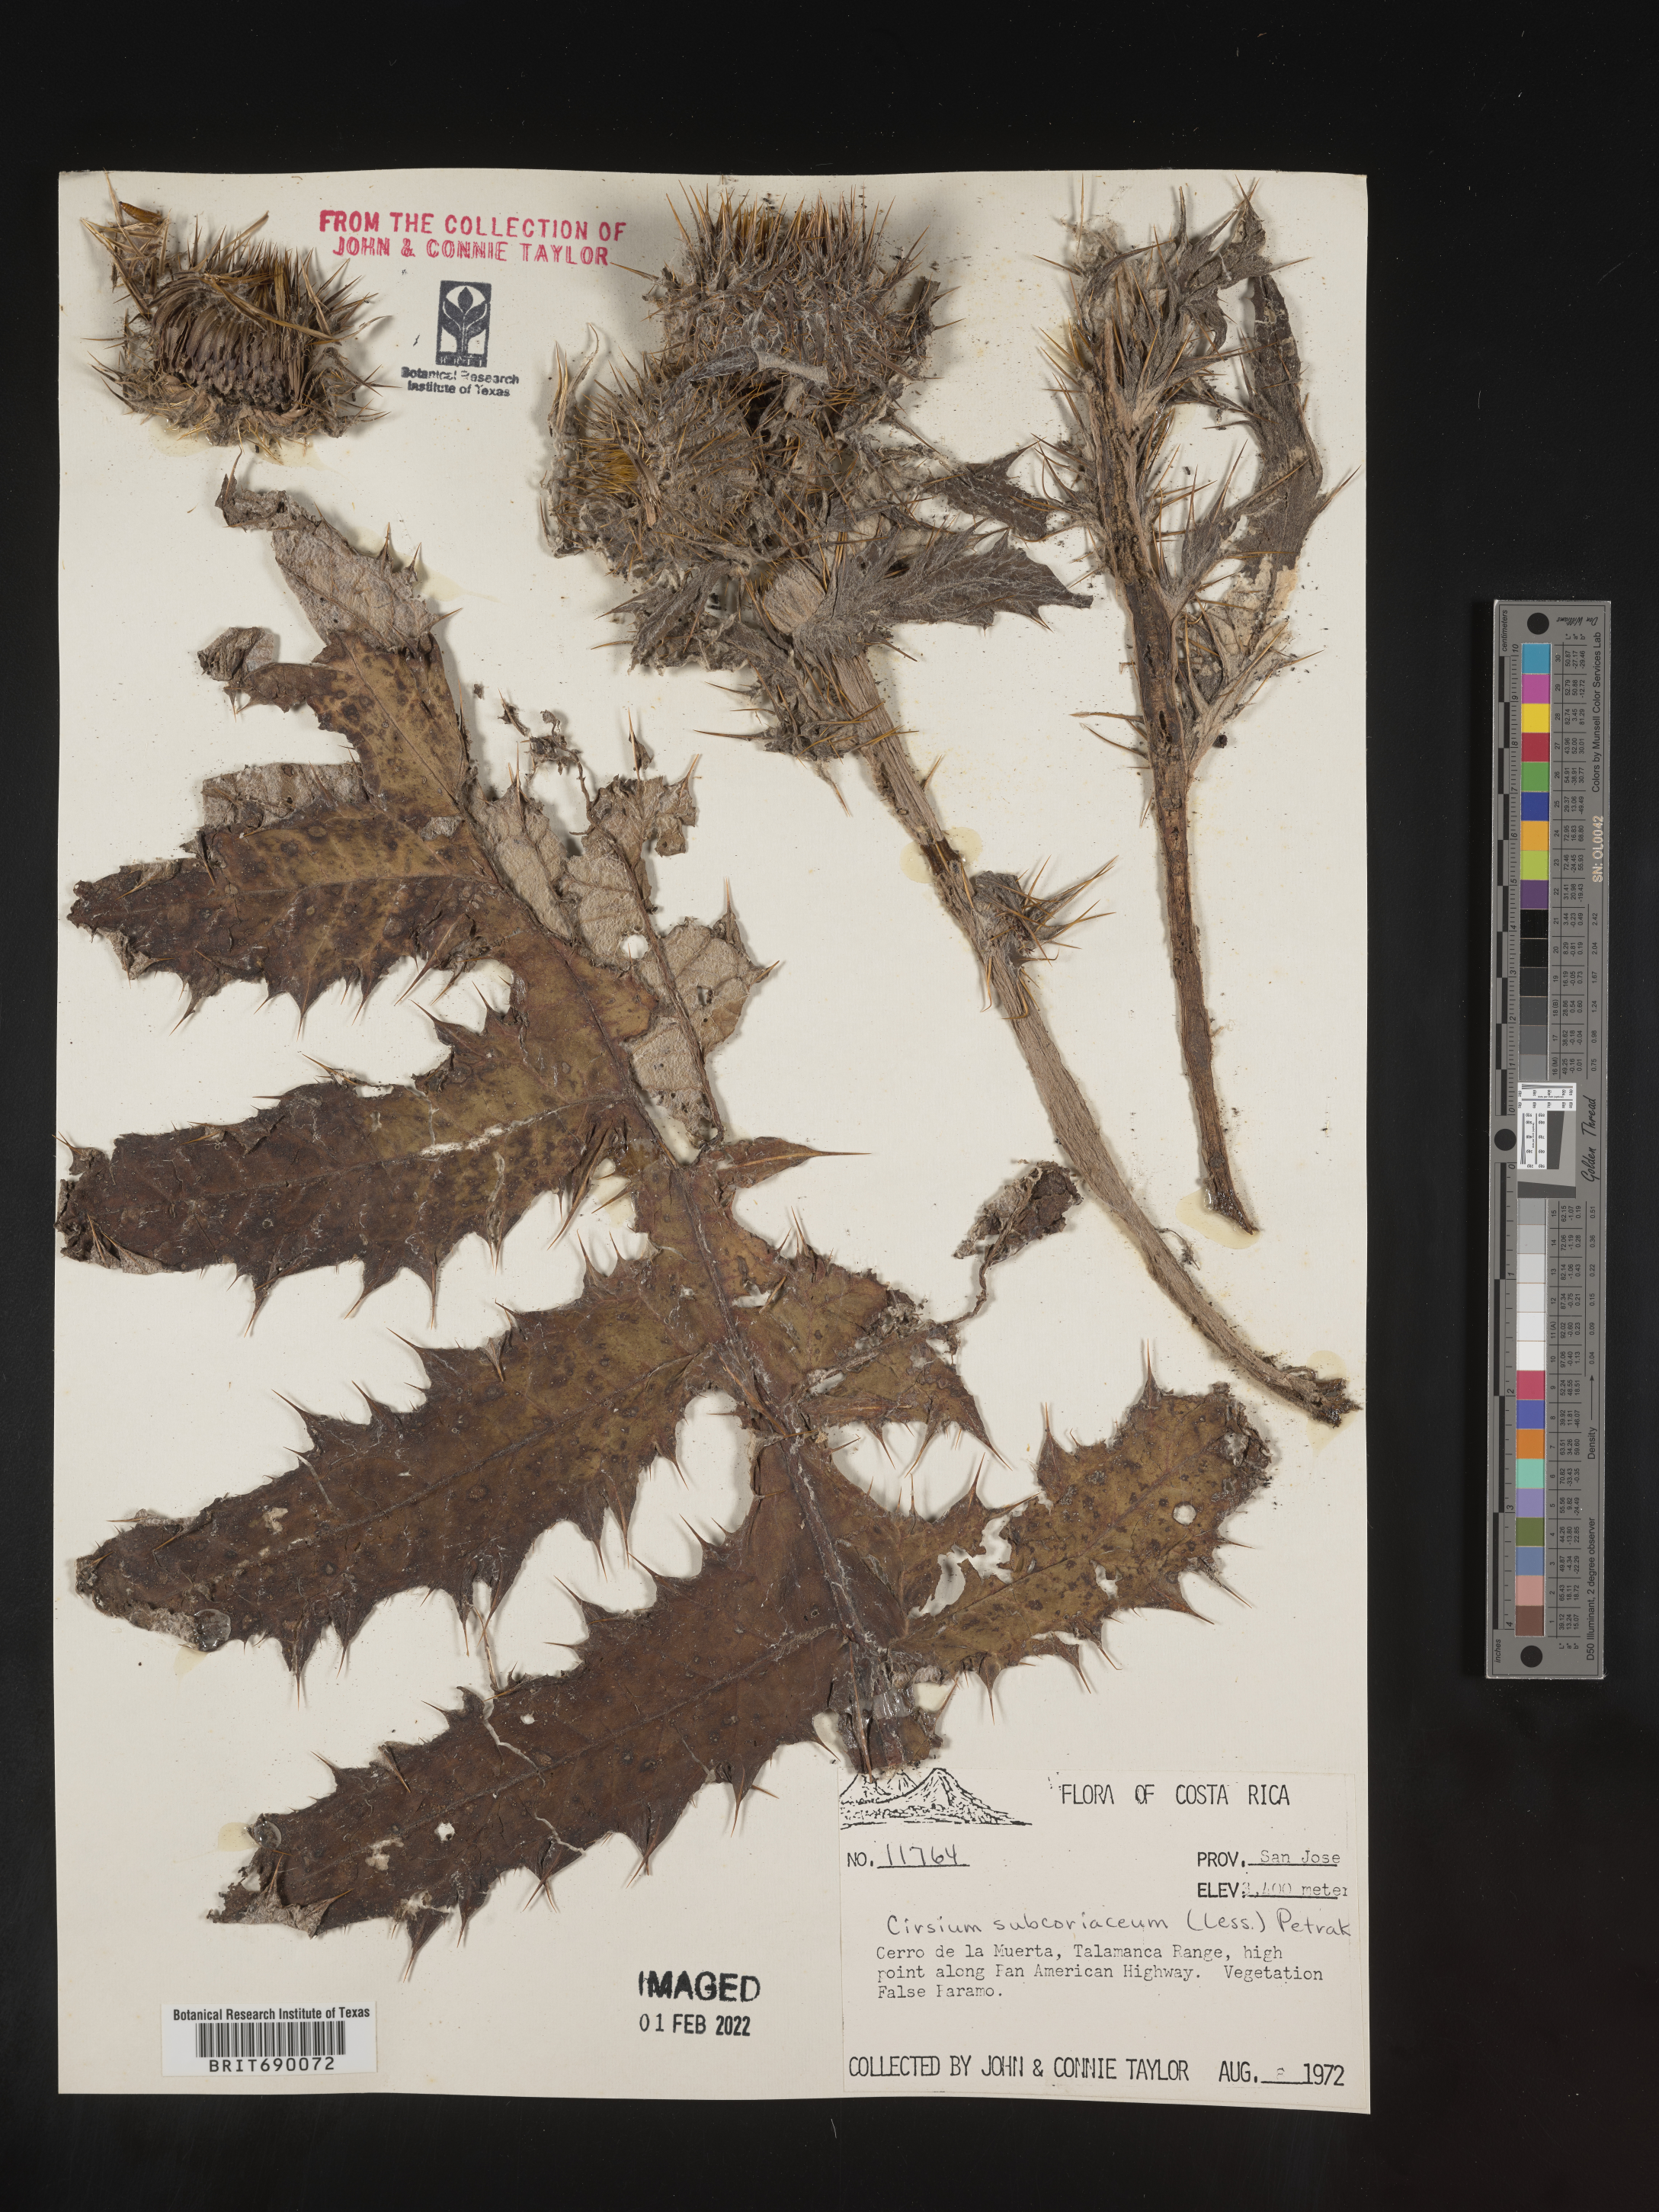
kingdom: Plantae
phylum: Tracheophyta
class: Magnoliopsida
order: Asterales
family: Asteraceae
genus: Cirsium
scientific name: Cirsium
